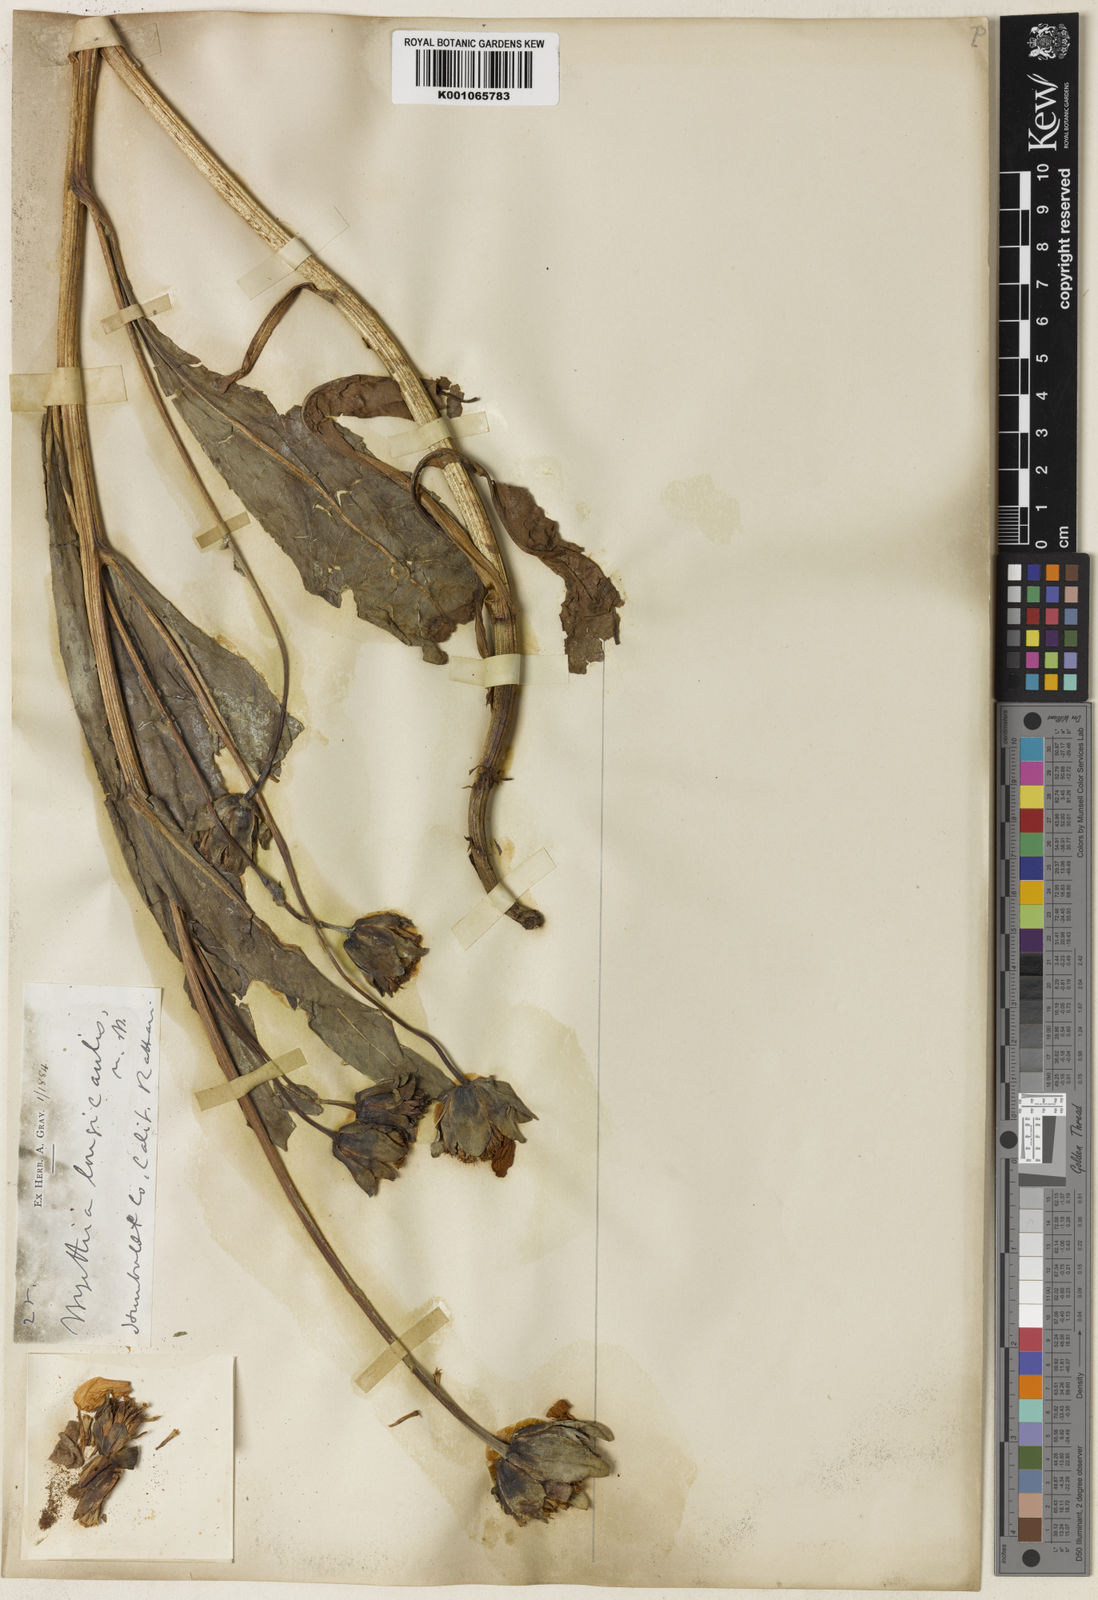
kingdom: Plantae
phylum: Tracheophyta
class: Magnoliopsida
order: Asterales
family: Asteraceae
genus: Wyethia
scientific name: Wyethia longicaulis
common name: Humboldt county wyethia
